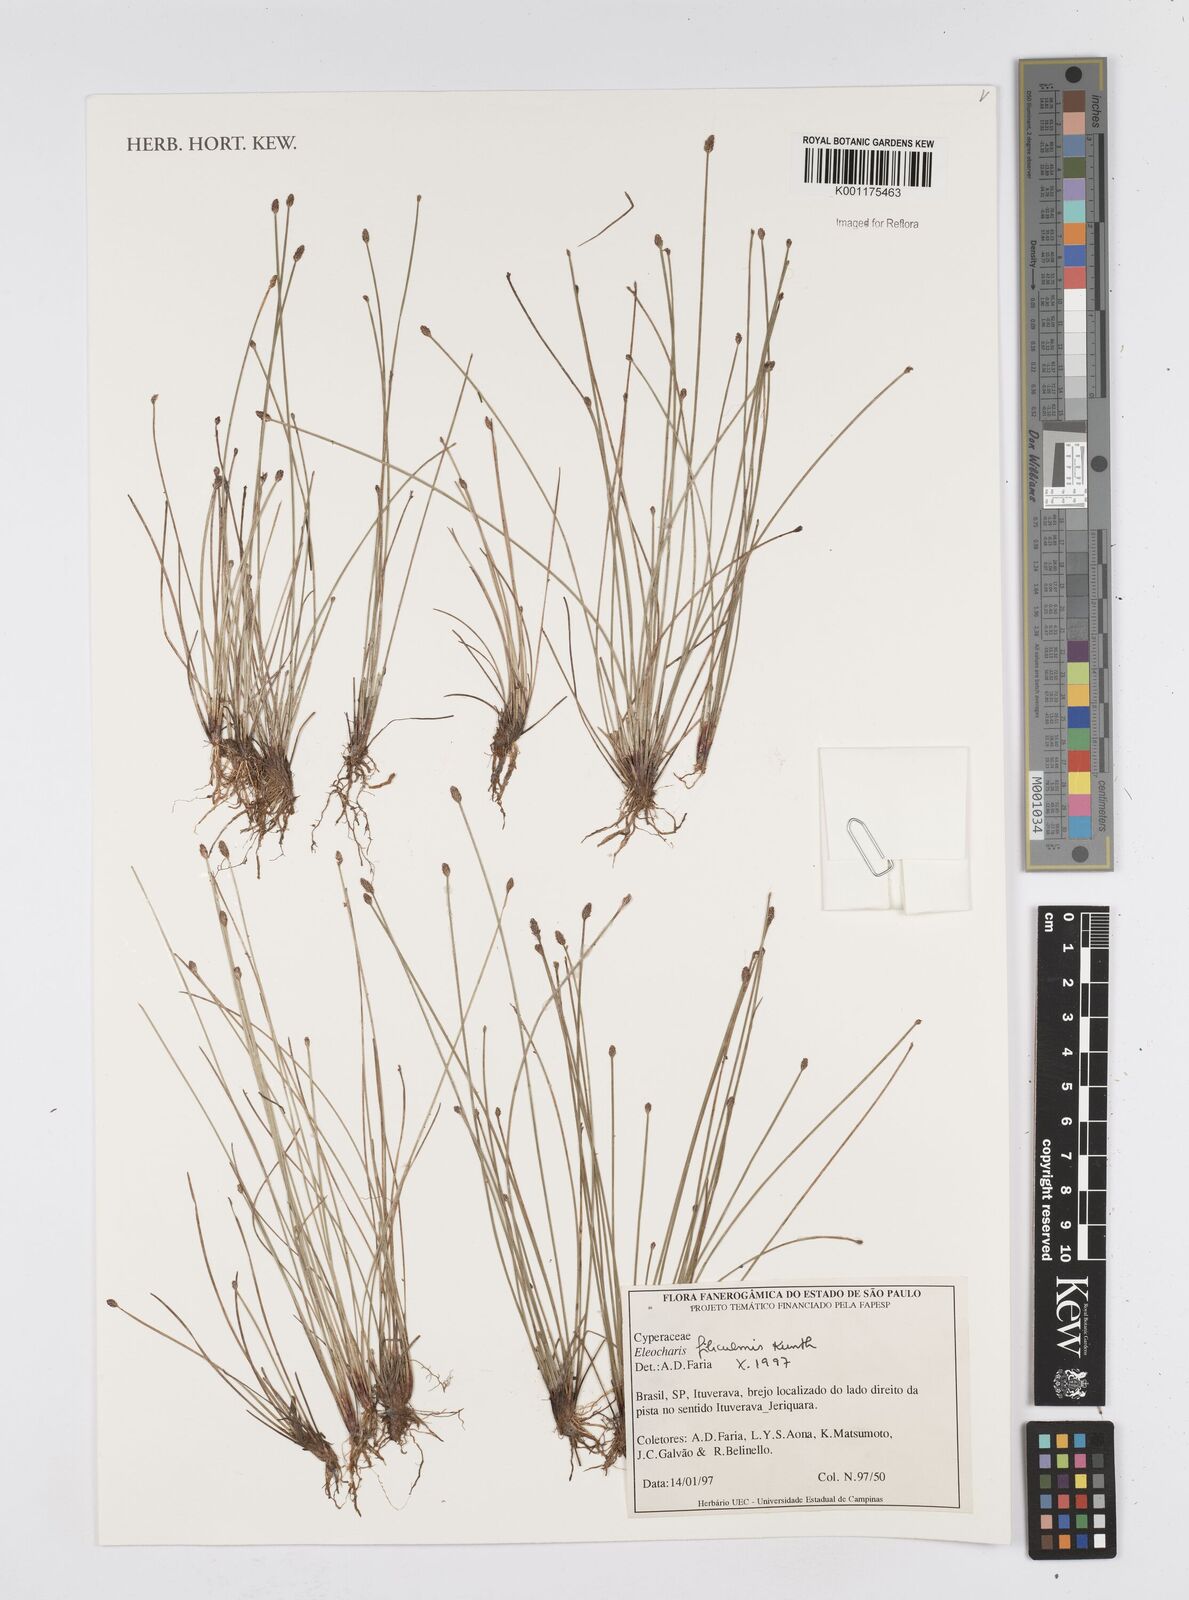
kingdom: Plantae
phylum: Tracheophyta
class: Liliopsida
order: Poales
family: Cyperaceae
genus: Eleocharis
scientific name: Eleocharis filiculmis
